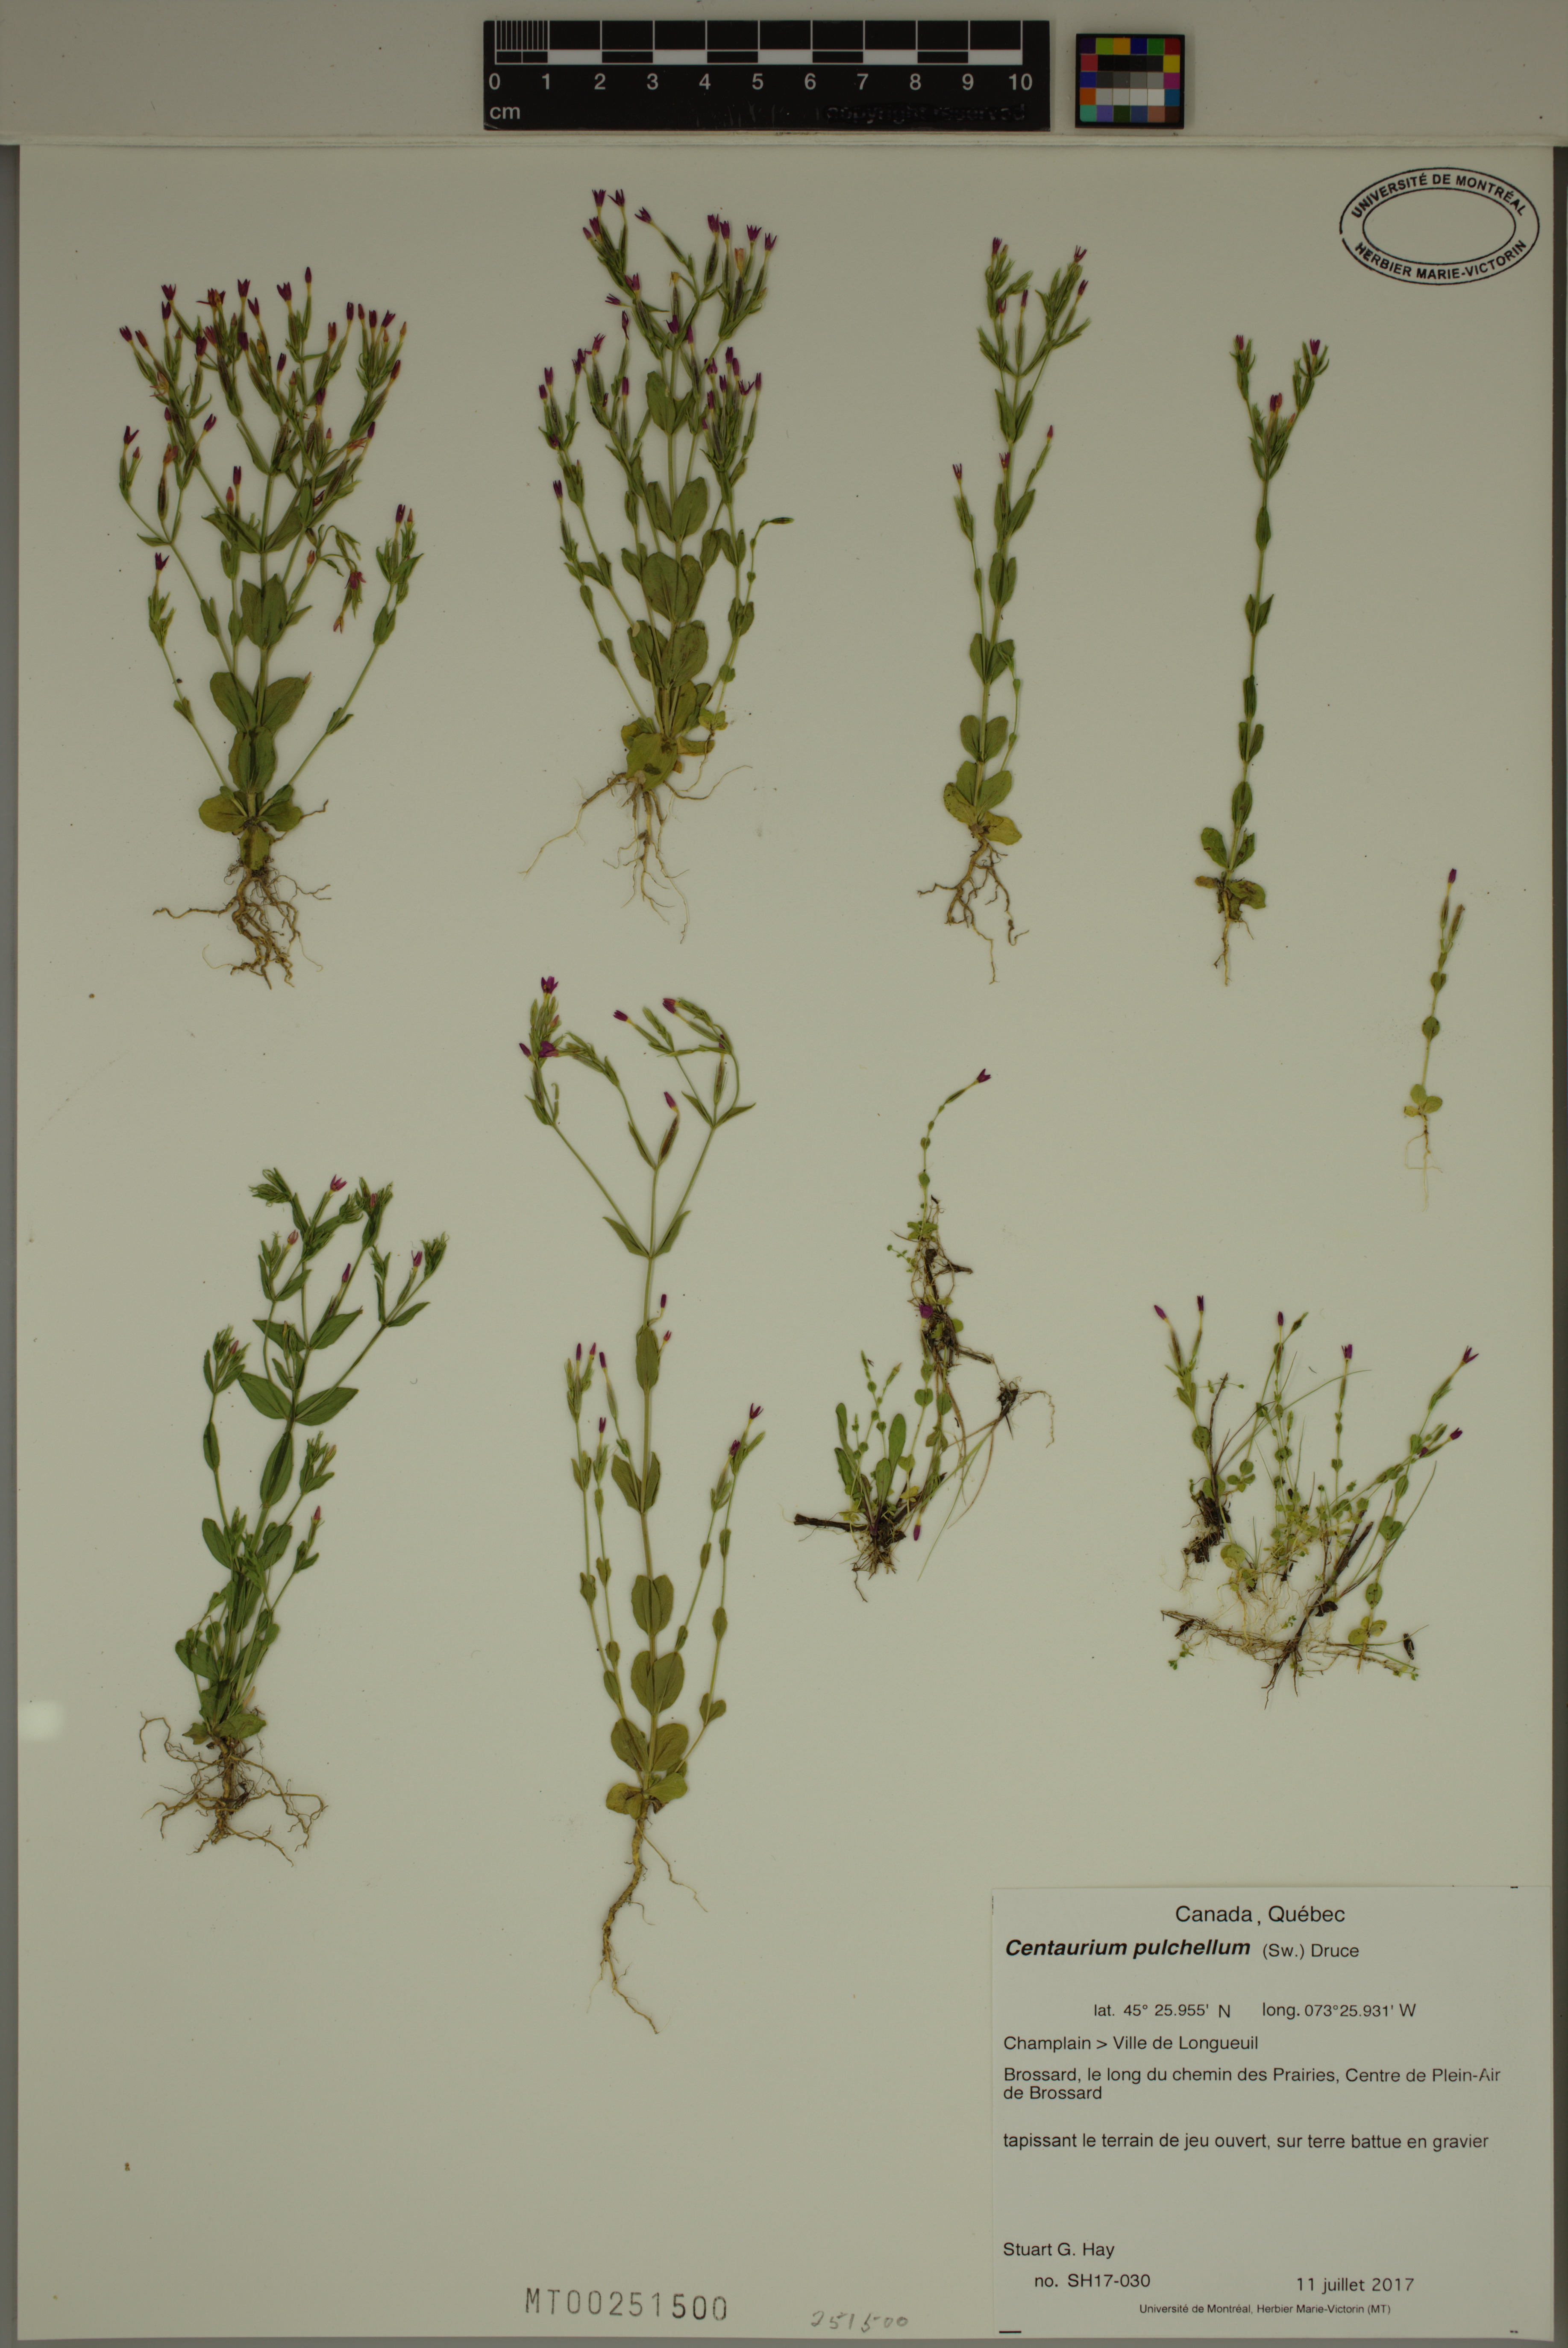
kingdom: Plantae
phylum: Tracheophyta
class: Magnoliopsida
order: Gentianales
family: Gentianaceae
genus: Centaurium
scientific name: Centaurium pulchellum
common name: Lesser centaury
